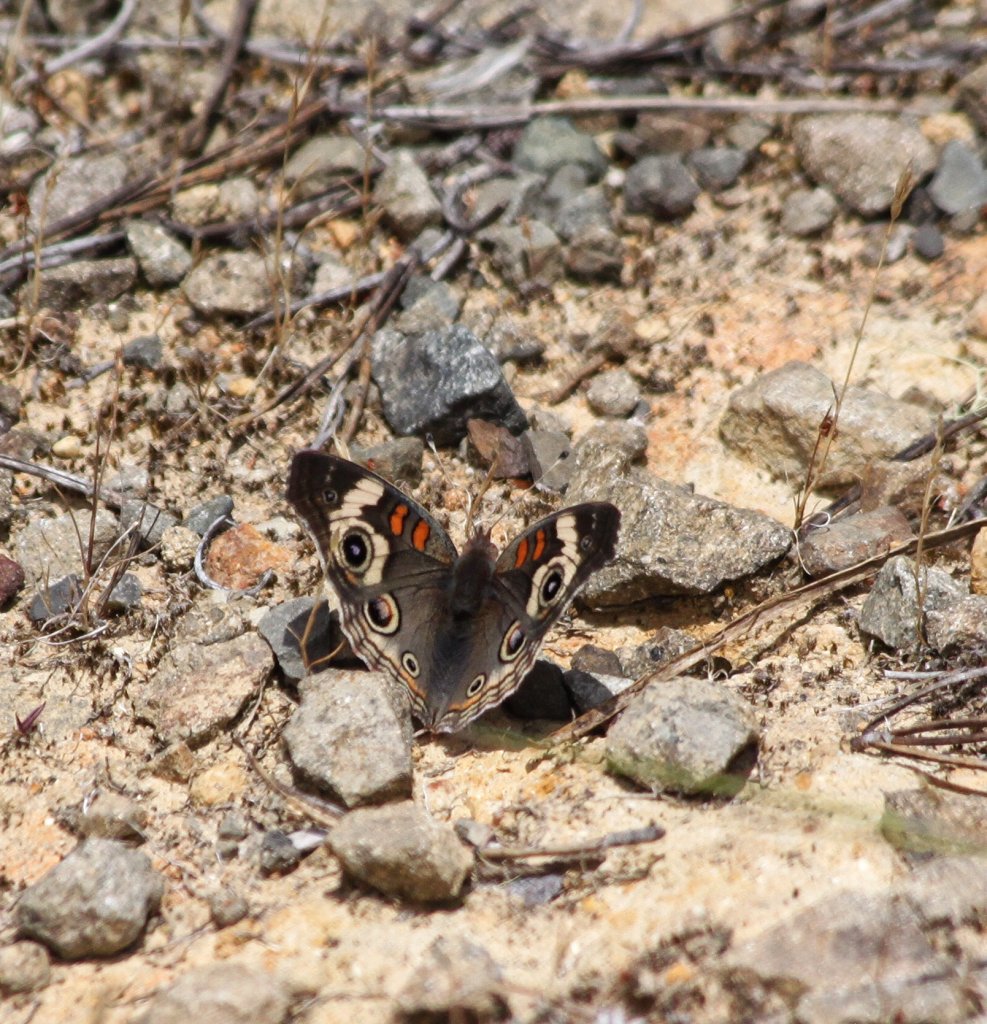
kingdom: Animalia
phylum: Arthropoda
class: Insecta
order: Lepidoptera
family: Nymphalidae
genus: Junonia
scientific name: Junonia coenia
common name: Common Buckeye
